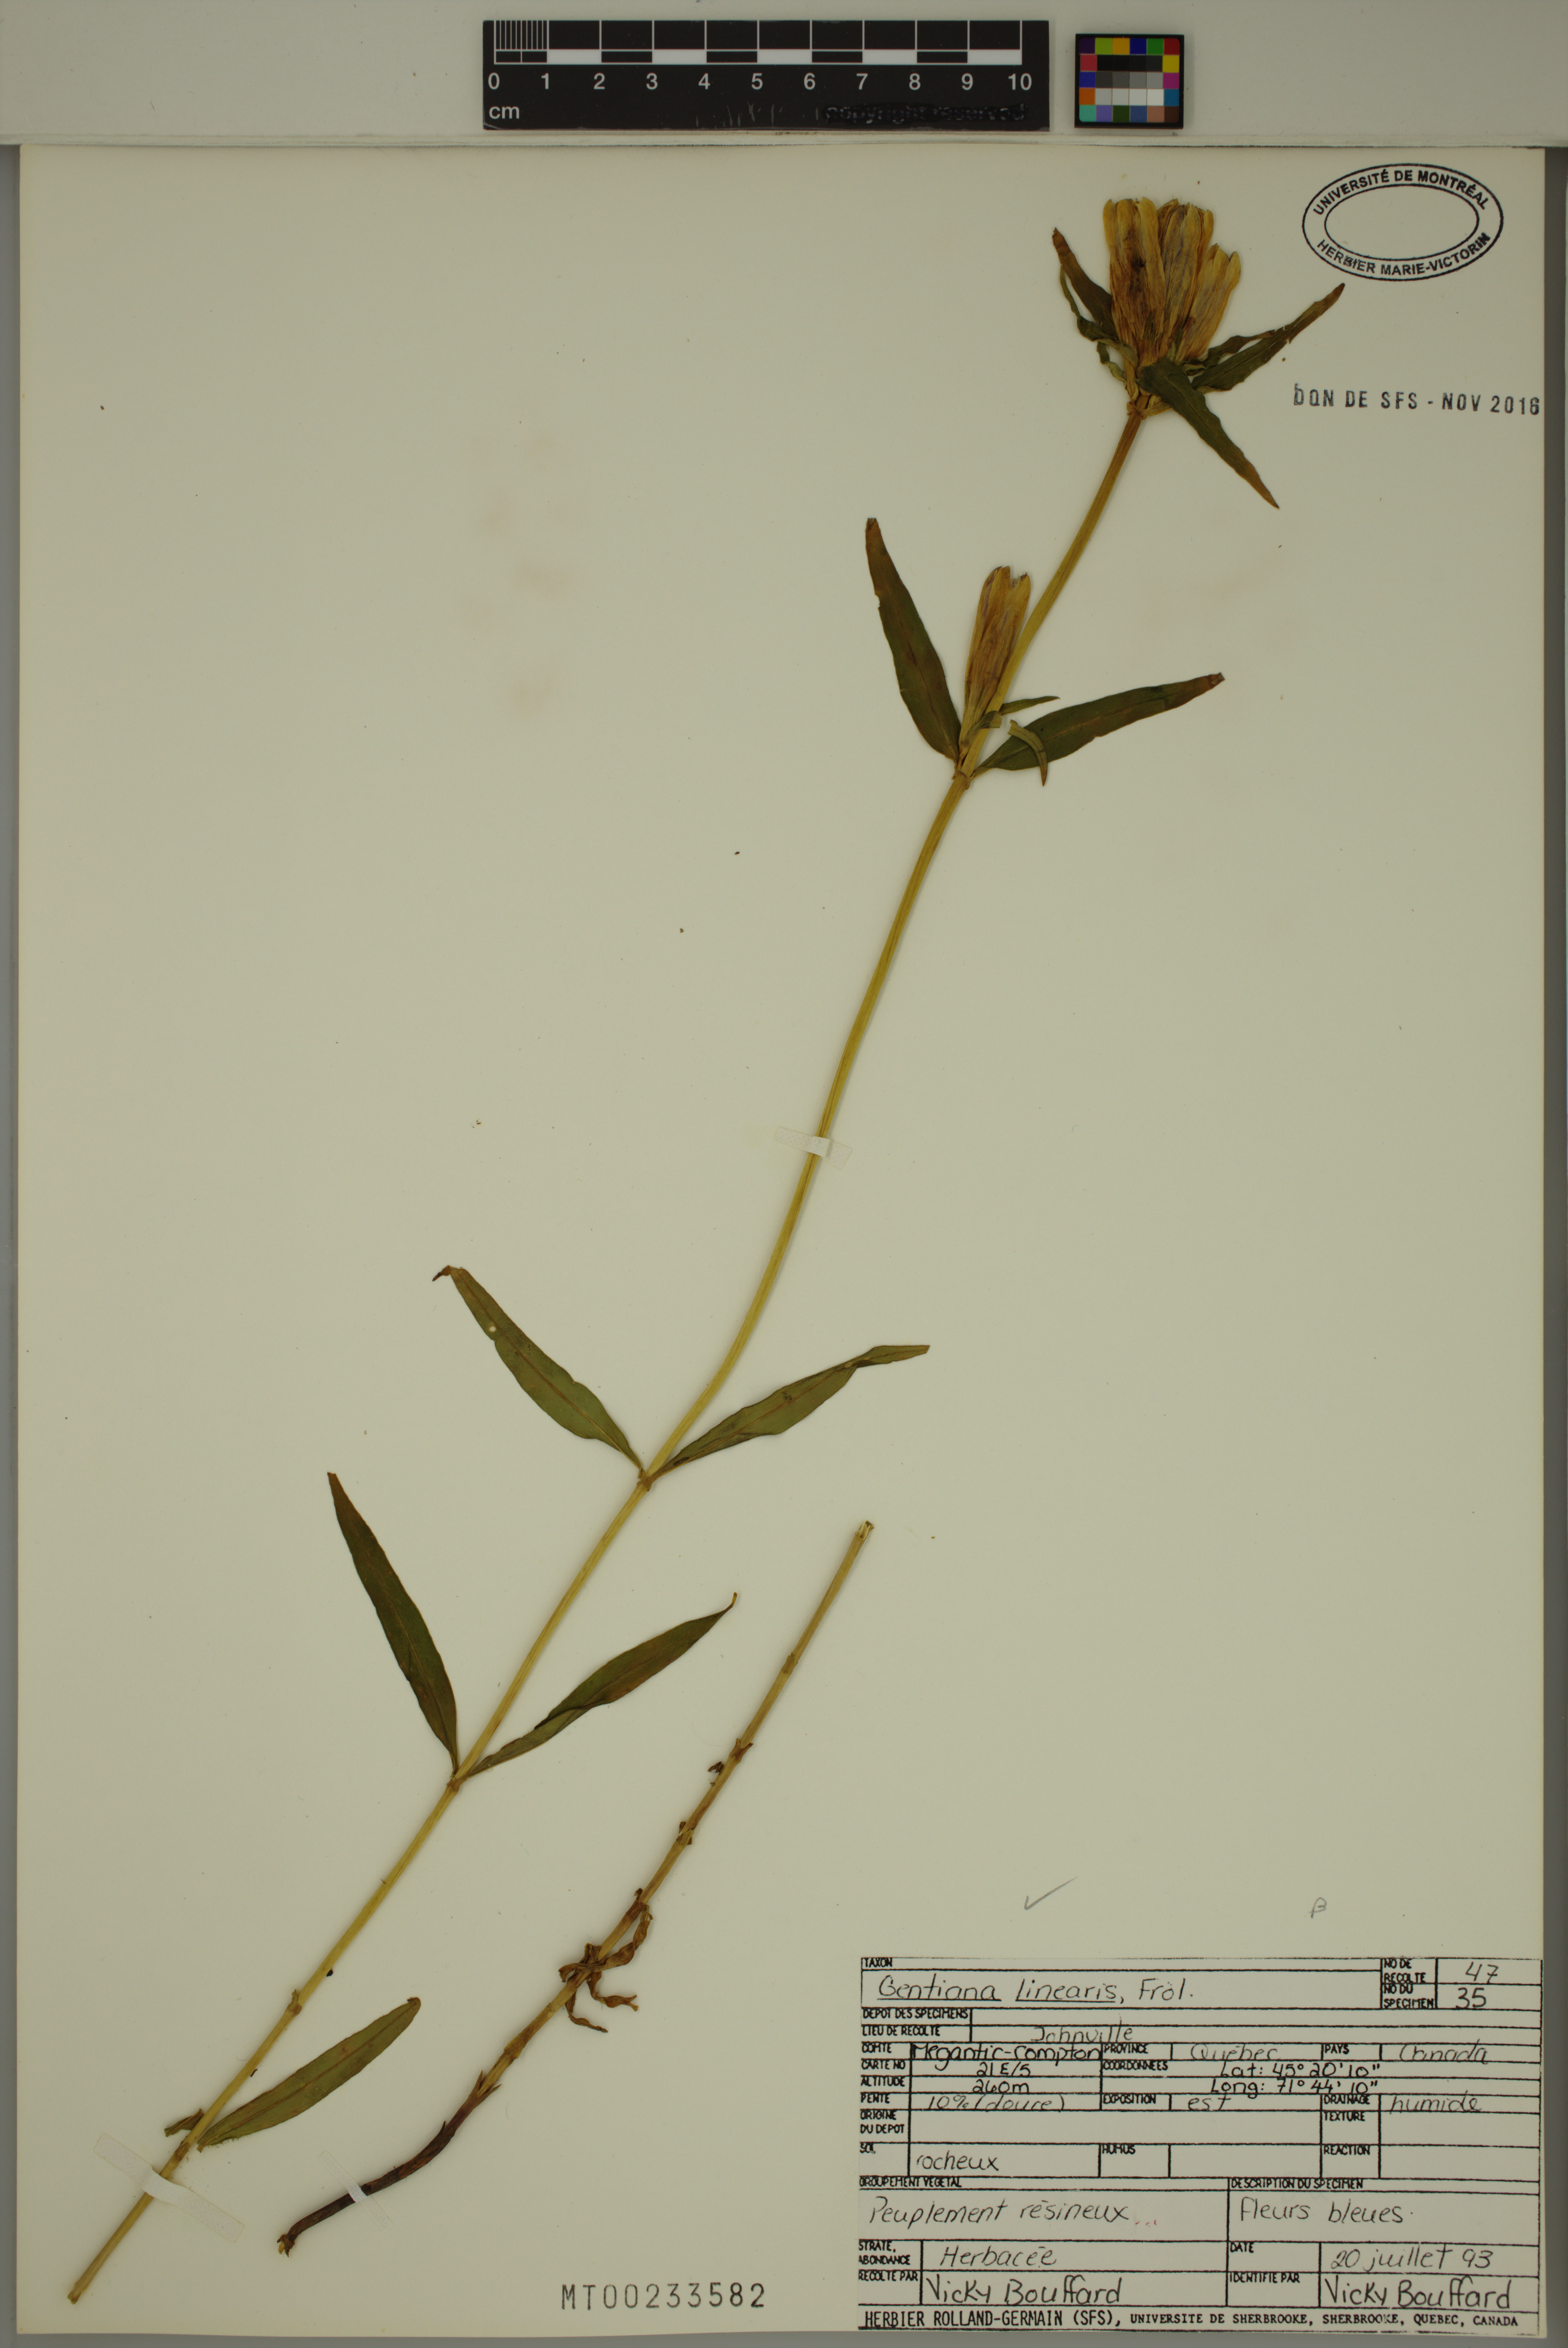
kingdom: Plantae
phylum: Tracheophyta
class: Magnoliopsida
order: Gentianales
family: Gentianaceae
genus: Gentiana
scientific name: Gentiana linearis
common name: Bastard gentian
